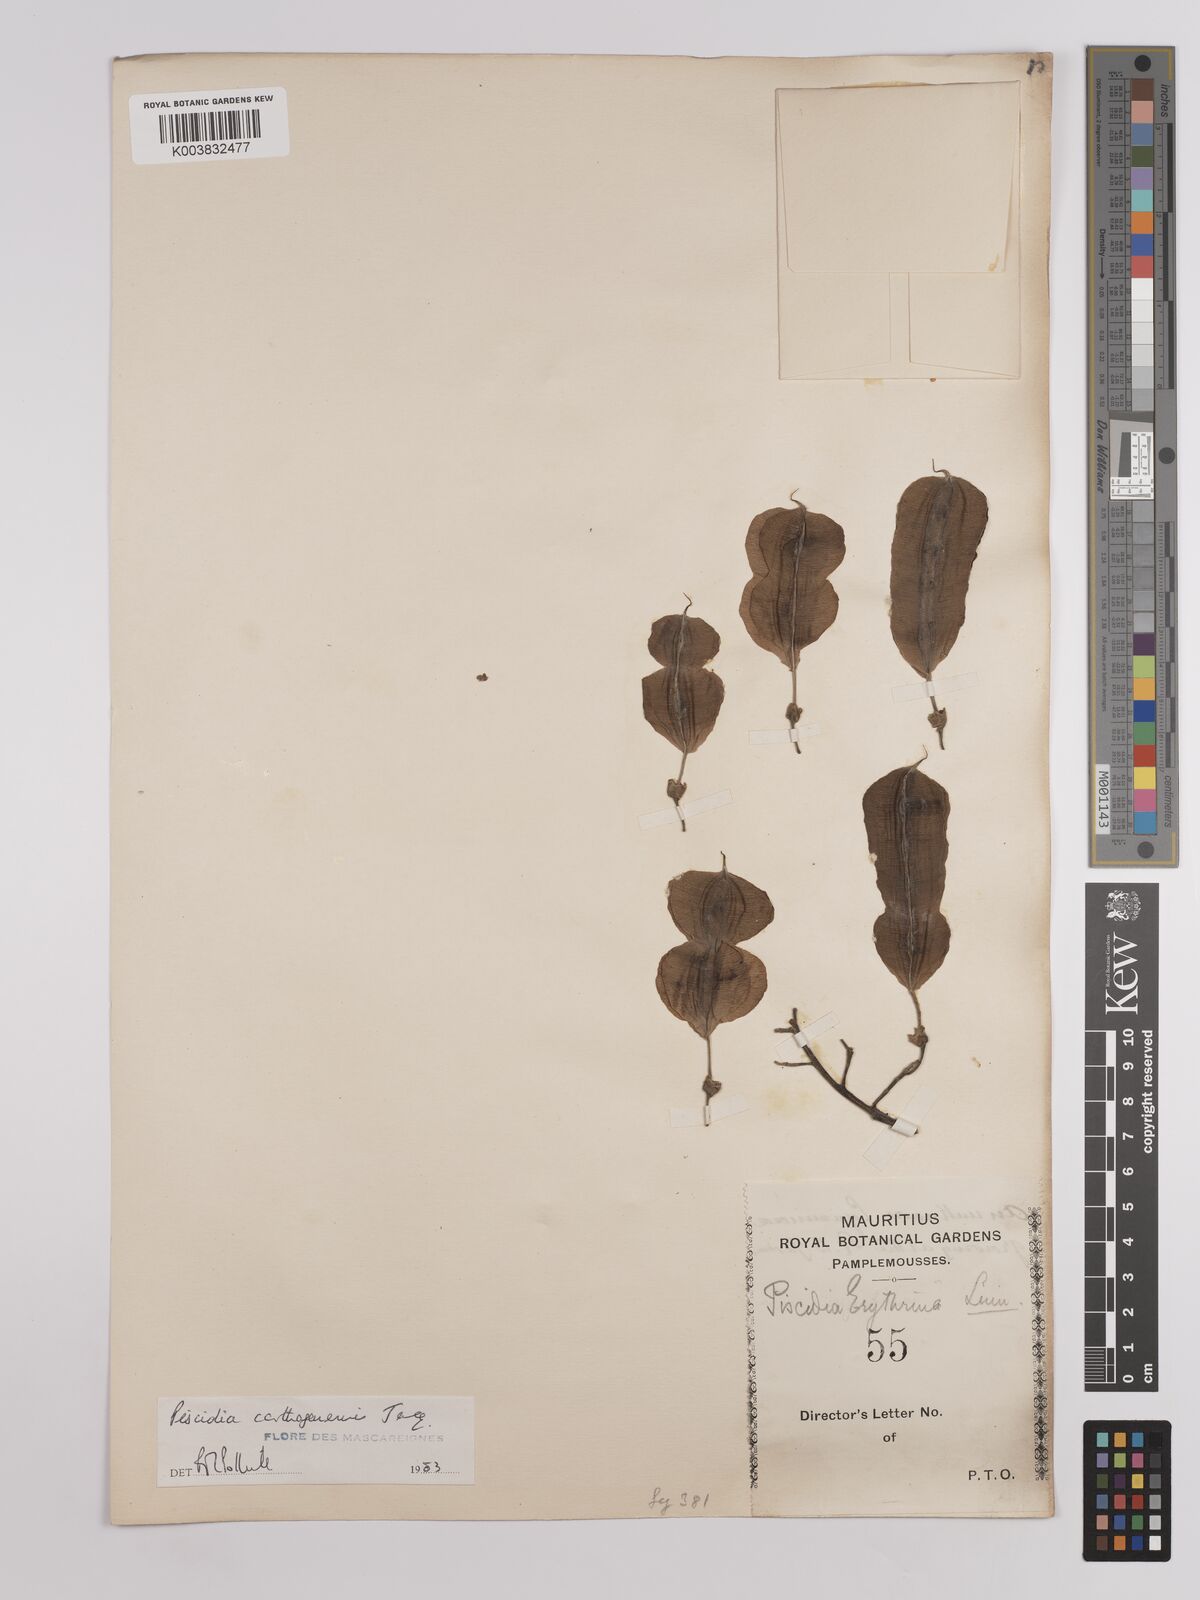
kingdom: Plantae
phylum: Tracheophyta
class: Magnoliopsida
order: Fabales
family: Fabaceae
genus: Piscidia
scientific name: Piscidia carthagenensis
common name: Stinkwood
